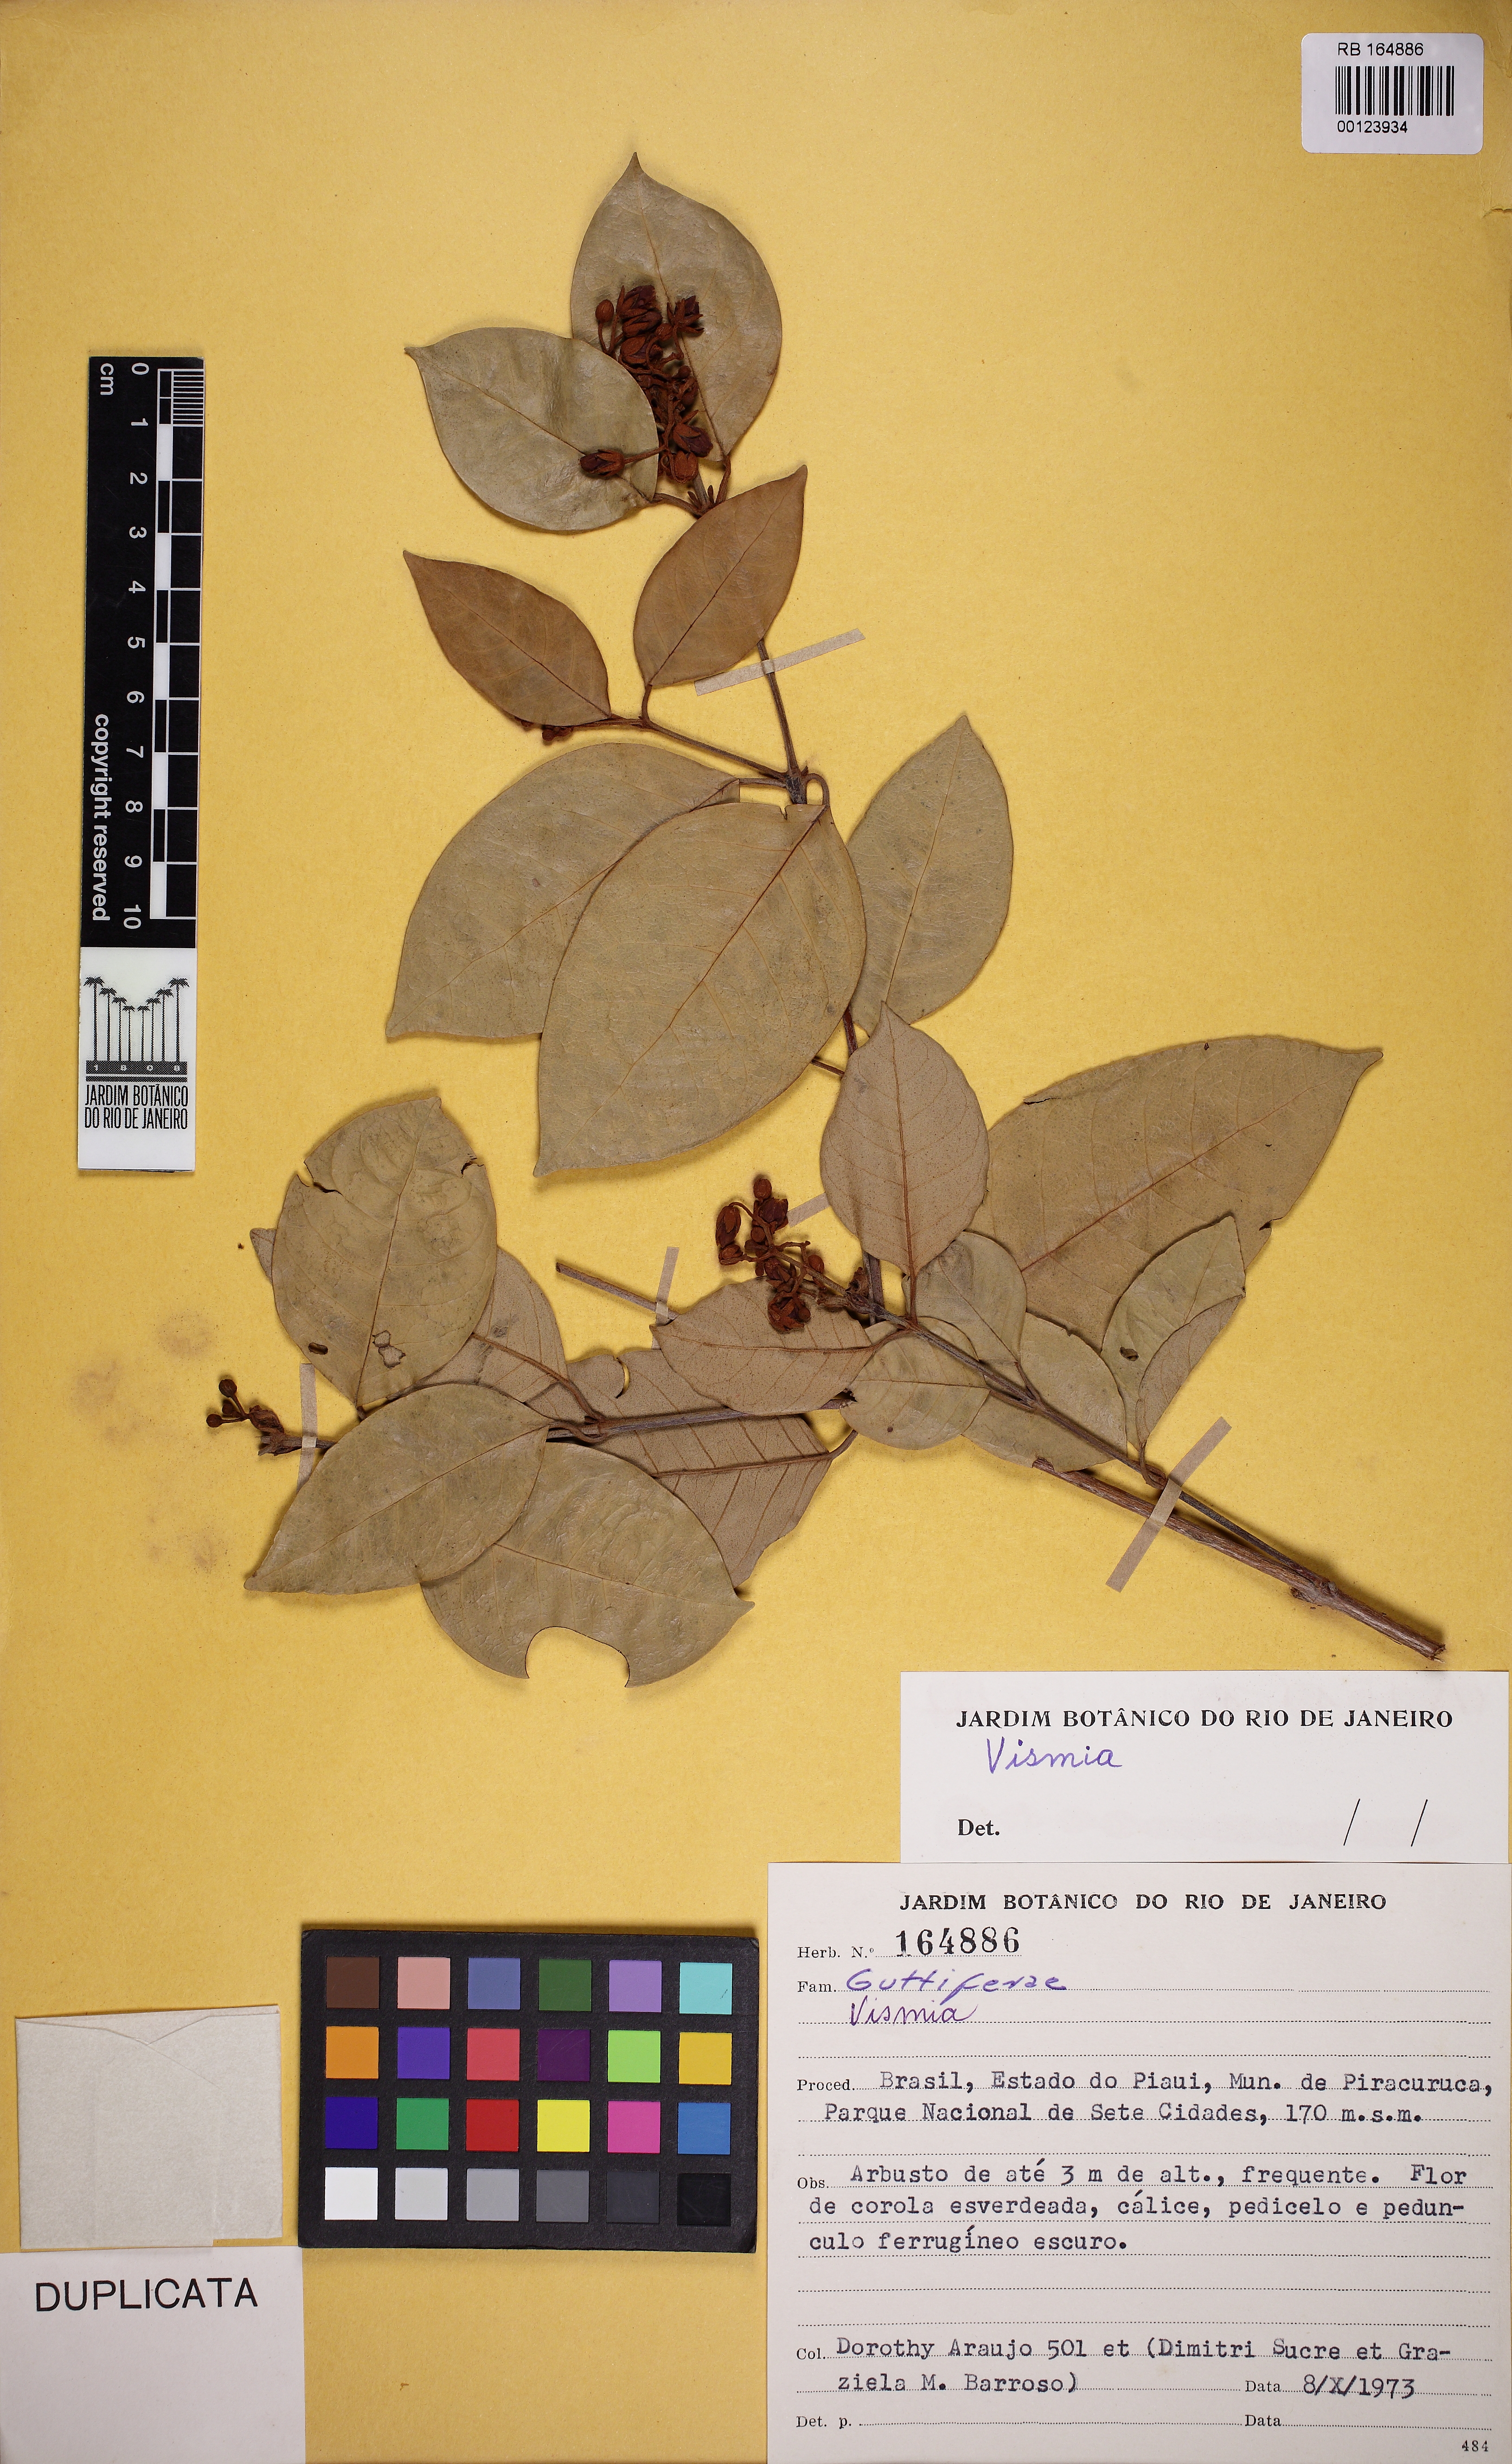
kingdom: Plantae
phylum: Tracheophyta
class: Magnoliopsida
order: Malpighiales
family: Hypericaceae
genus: Vismia
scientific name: Vismia guianensis
